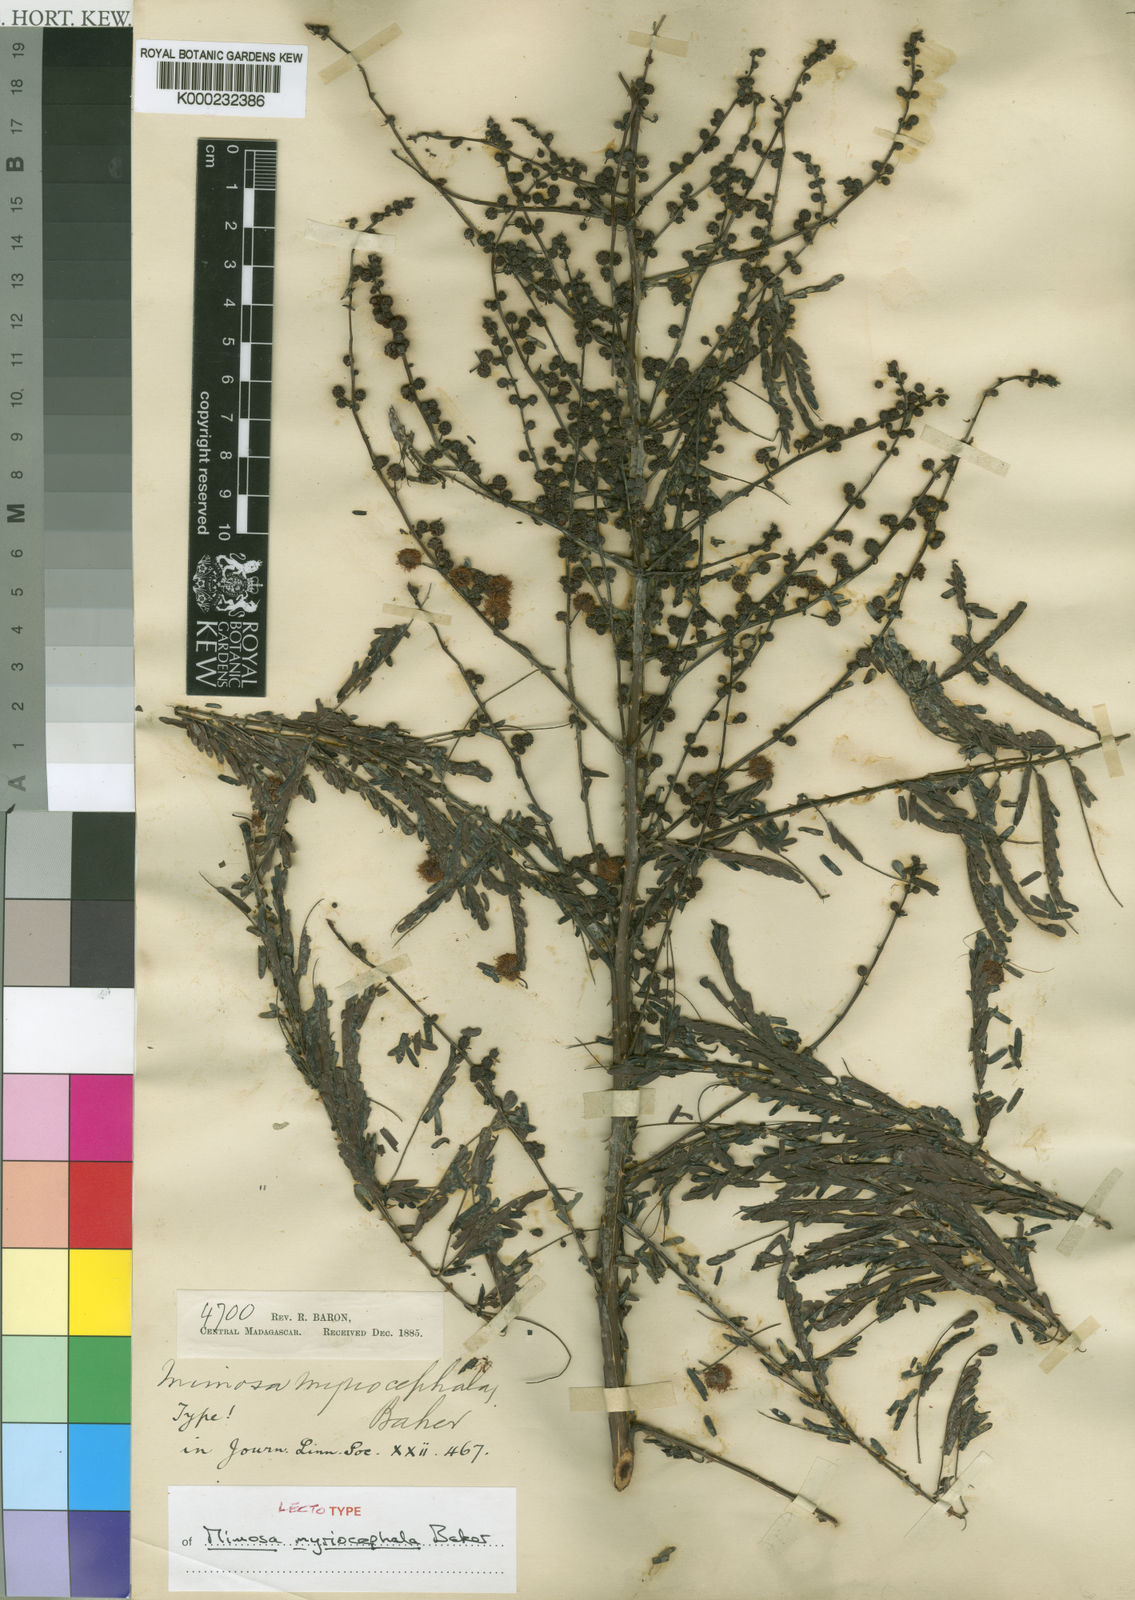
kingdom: Plantae
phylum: Tracheophyta
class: Magnoliopsida
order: Fabales
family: Fabaceae
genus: Mimosa
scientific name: Mimosa myriocephala
